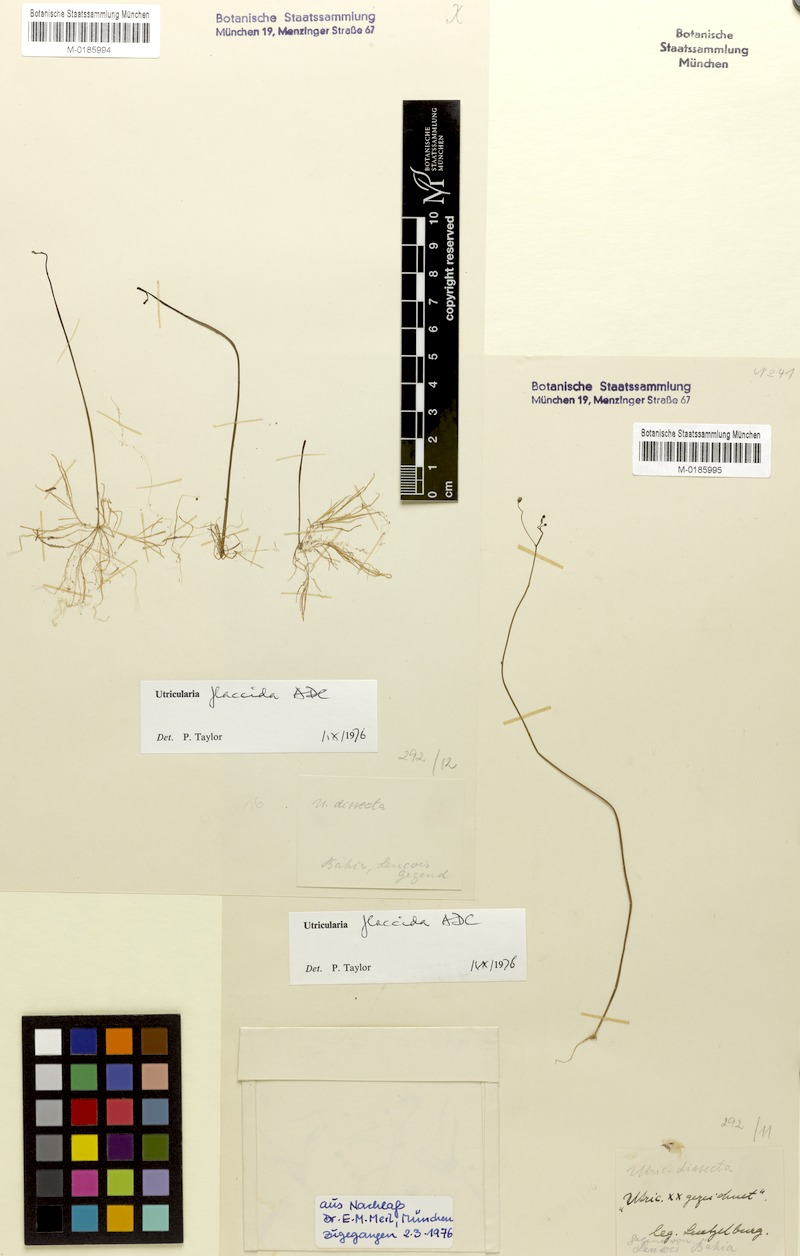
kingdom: Plantae
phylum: Tracheophyta
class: Magnoliopsida
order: Lamiales
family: Lentibulariaceae
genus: Utricularia
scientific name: Utricularia flaccida
